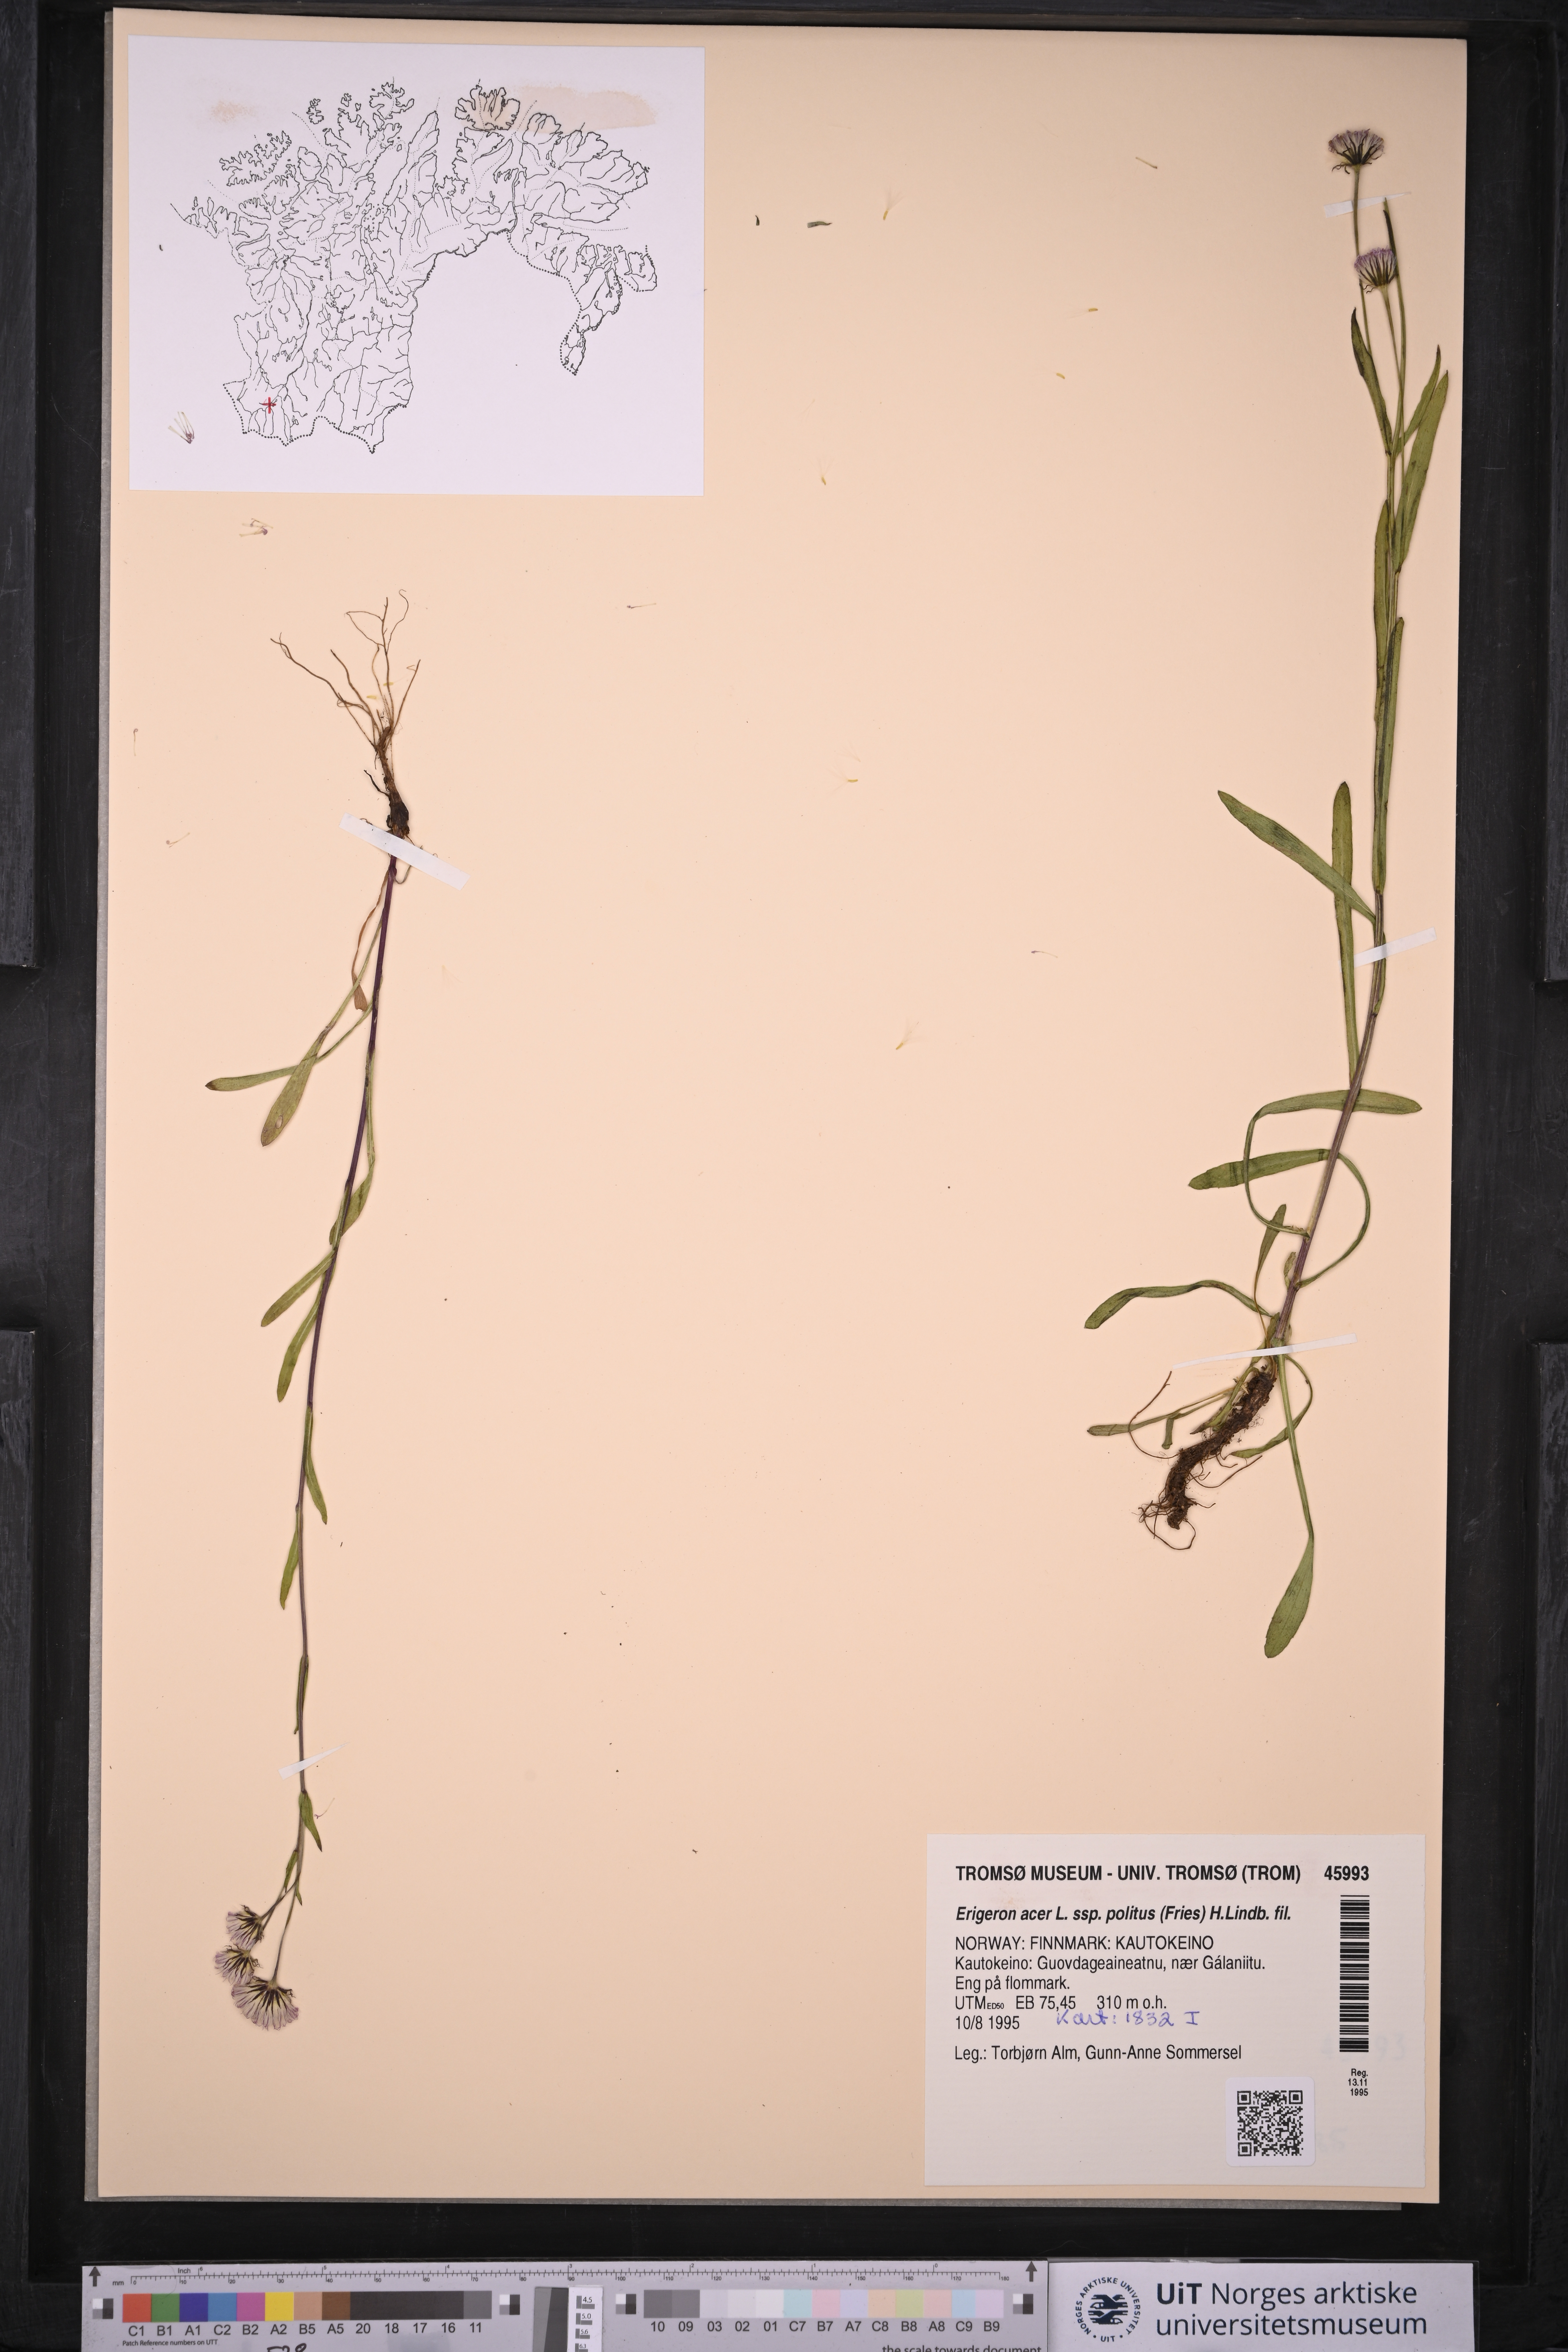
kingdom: Plantae
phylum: Tracheophyta
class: Magnoliopsida
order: Asterales
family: Asteraceae
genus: Erigeron
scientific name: Erigeron politus
